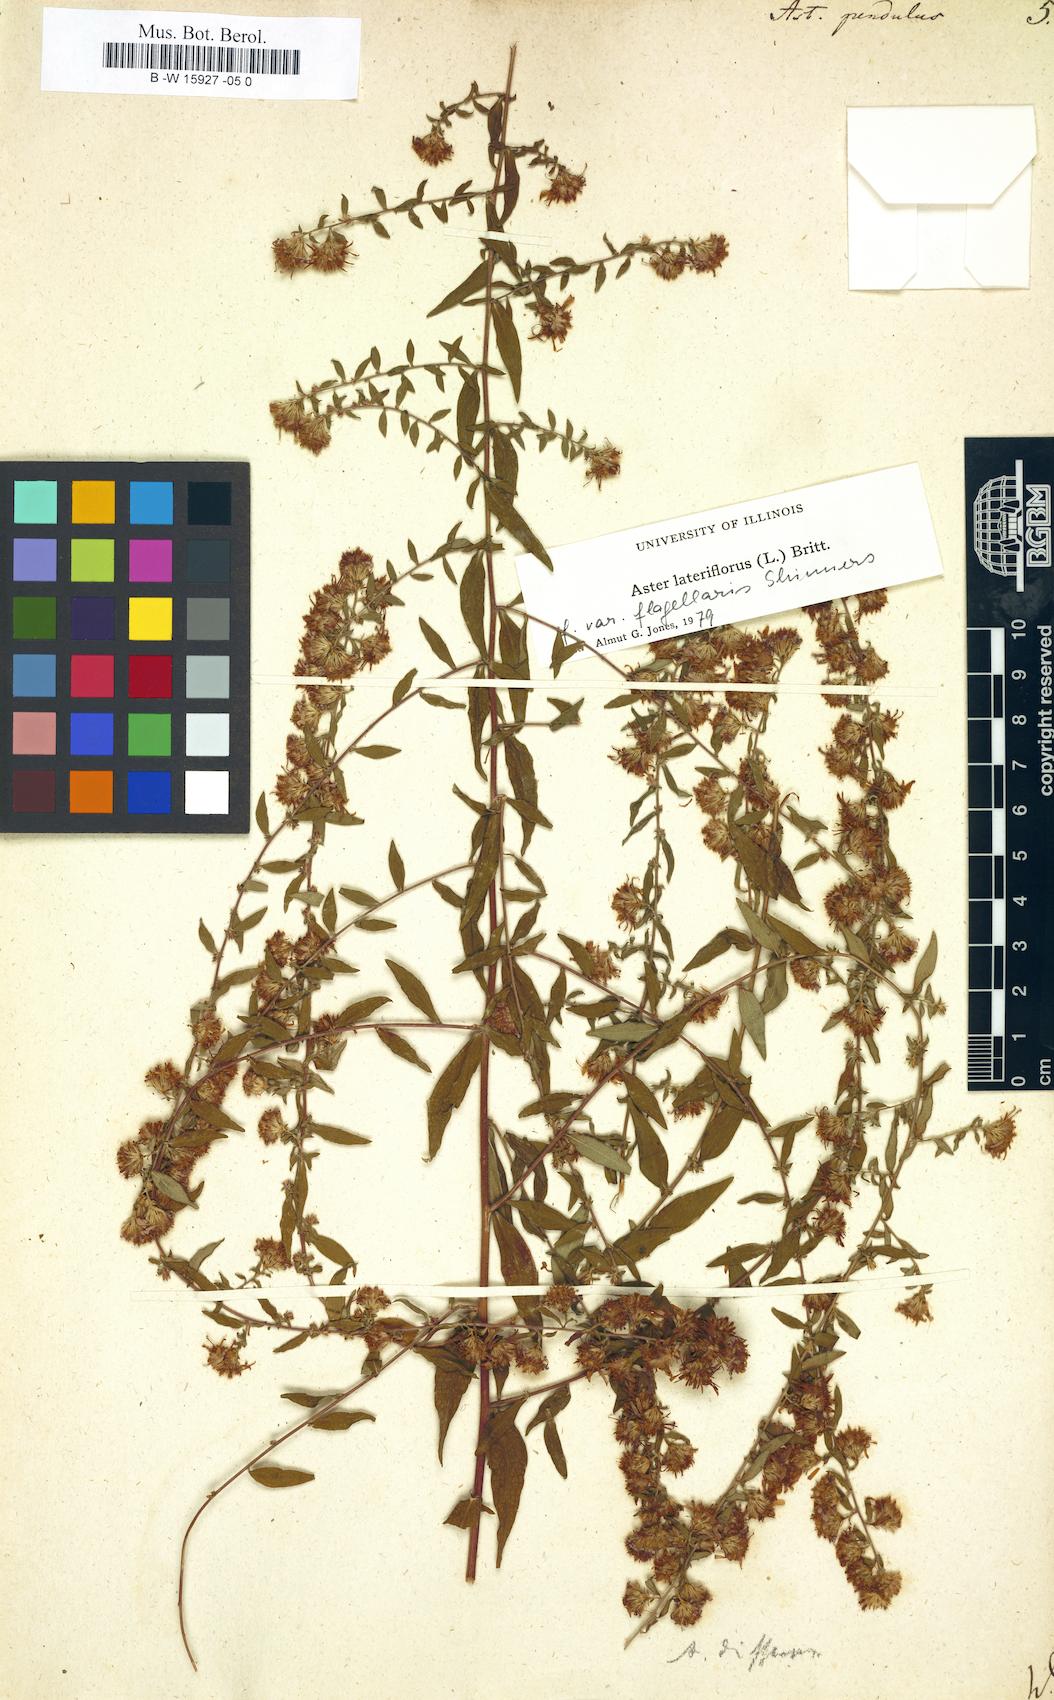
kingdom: Plantae
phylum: Tracheophyta
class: Magnoliopsida
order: Asterales
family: Asteraceae
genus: Symphyotrichum
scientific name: Symphyotrichum lateriflorum
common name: Calico aster
